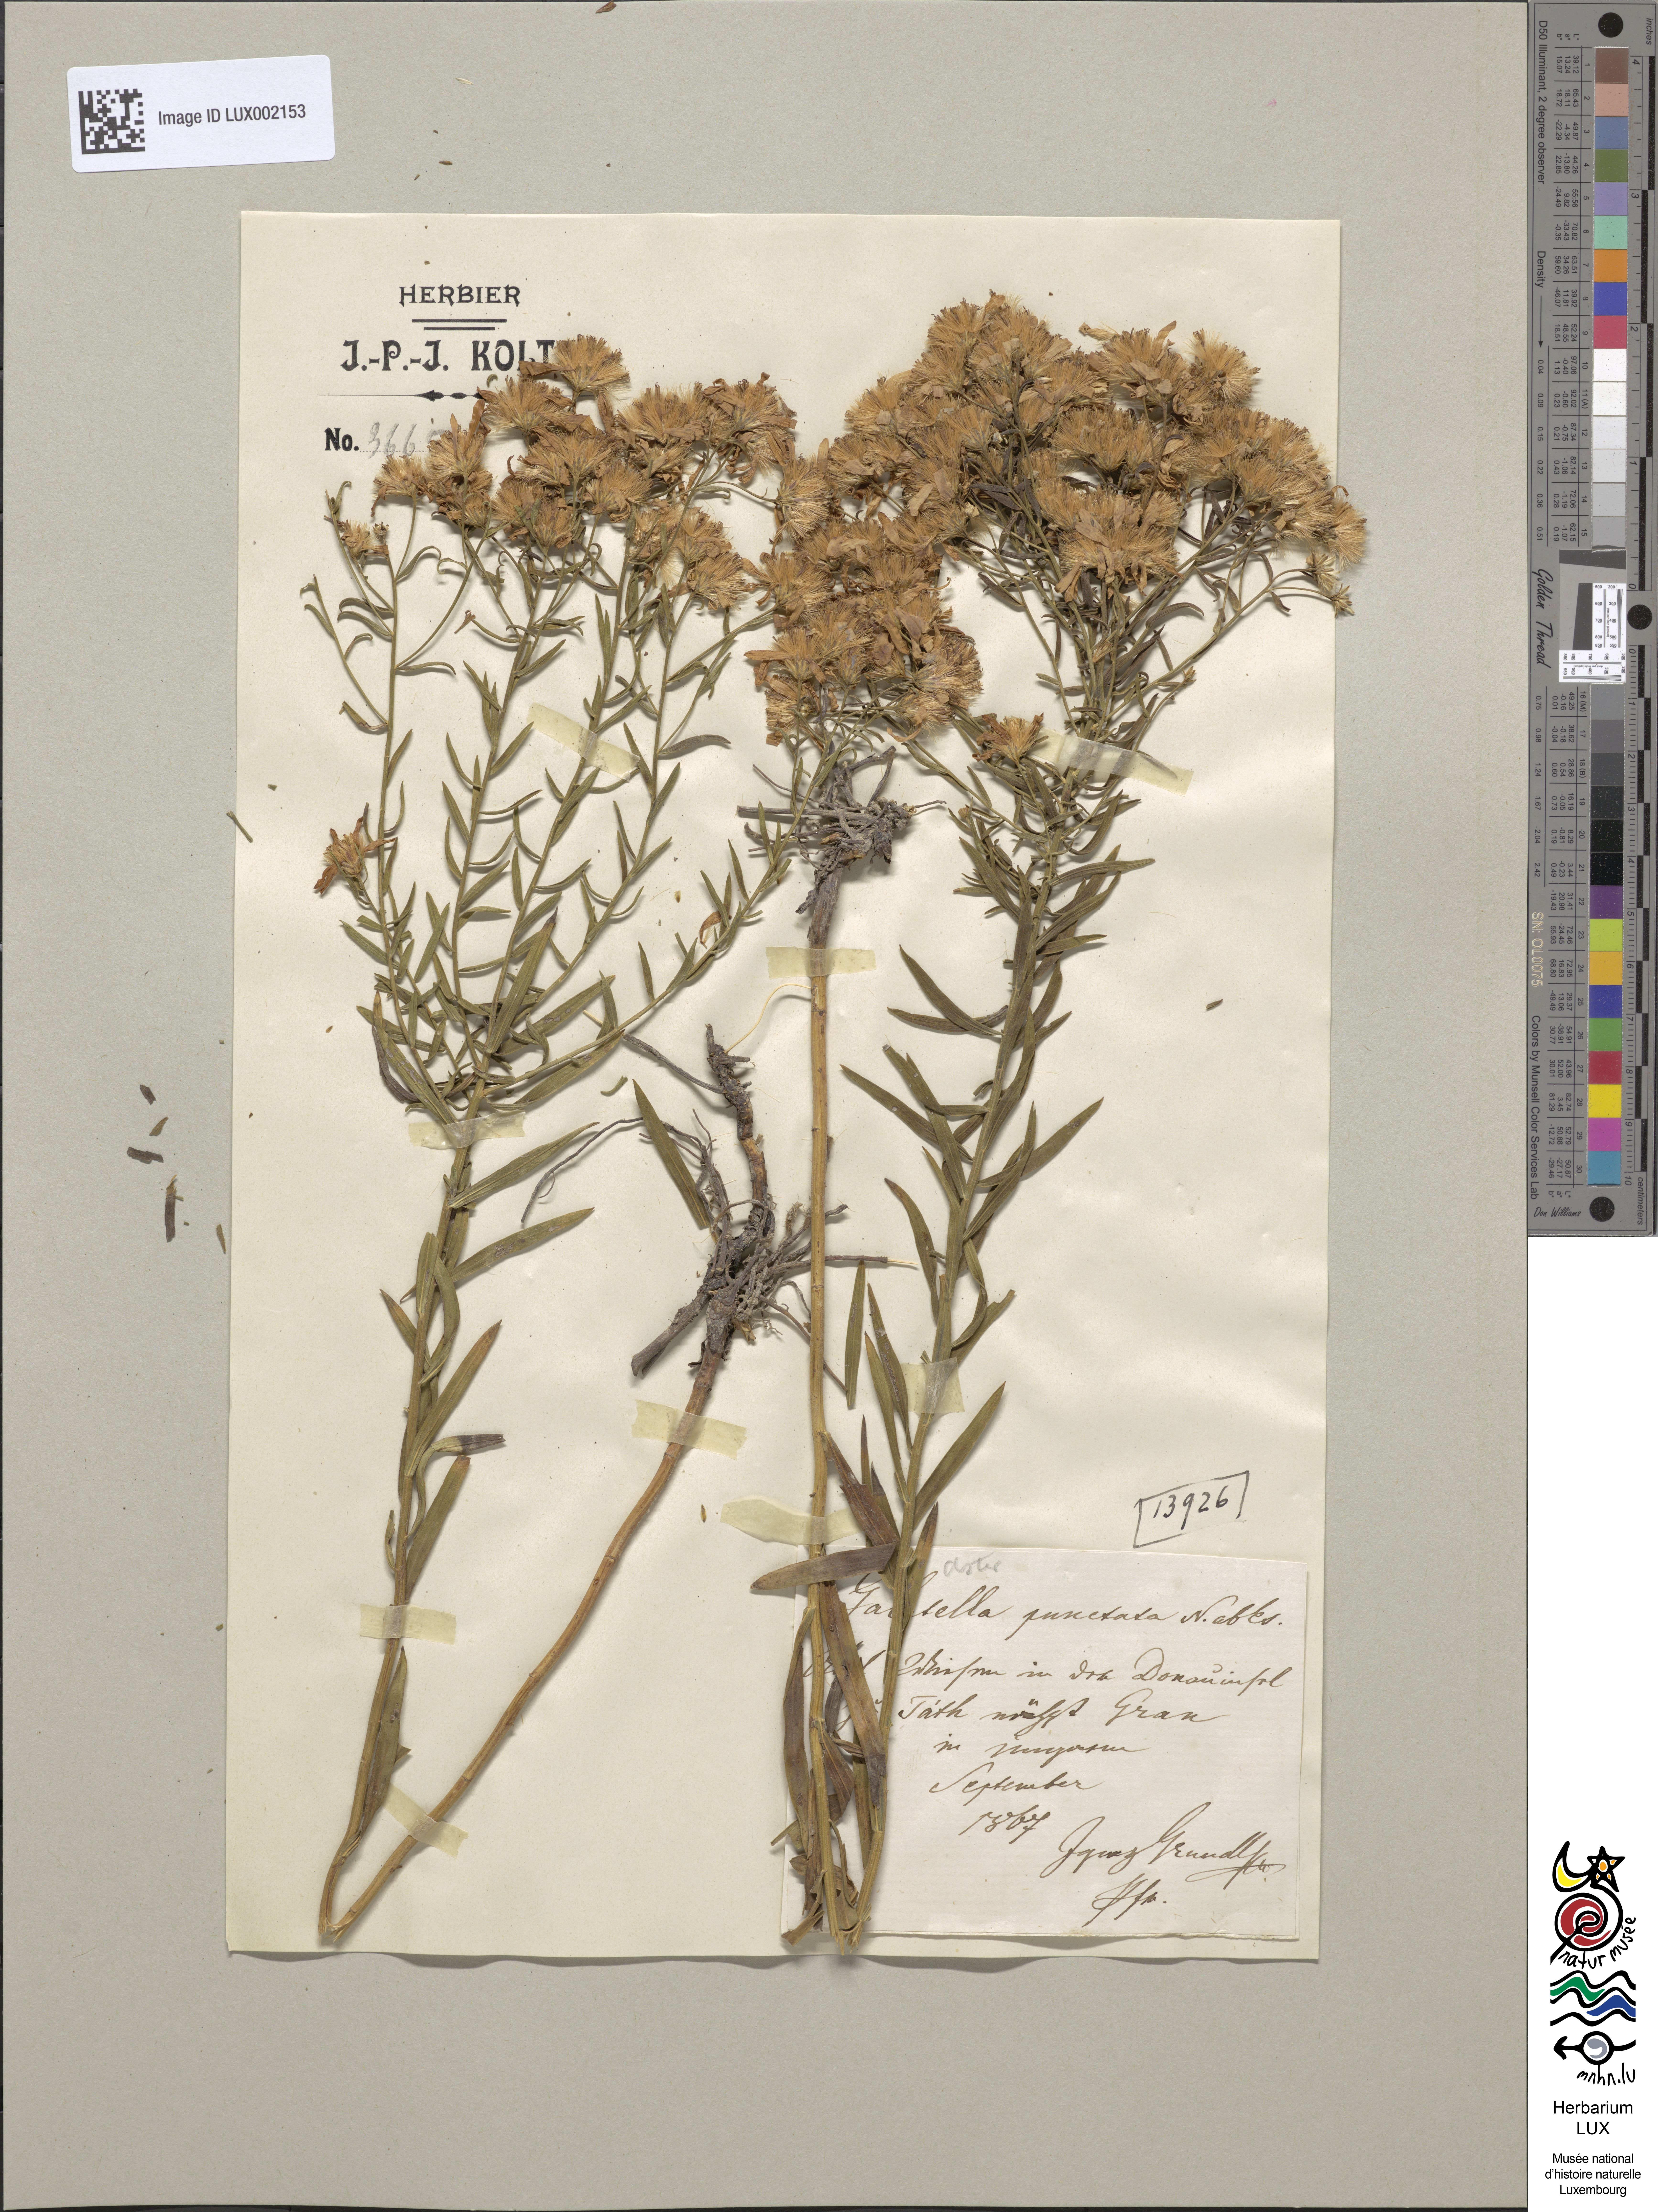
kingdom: Plantae
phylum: Tracheophyta
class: Magnoliopsida
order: Asterales
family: Asteraceae
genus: Galatella
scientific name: Galatella sedifolia
